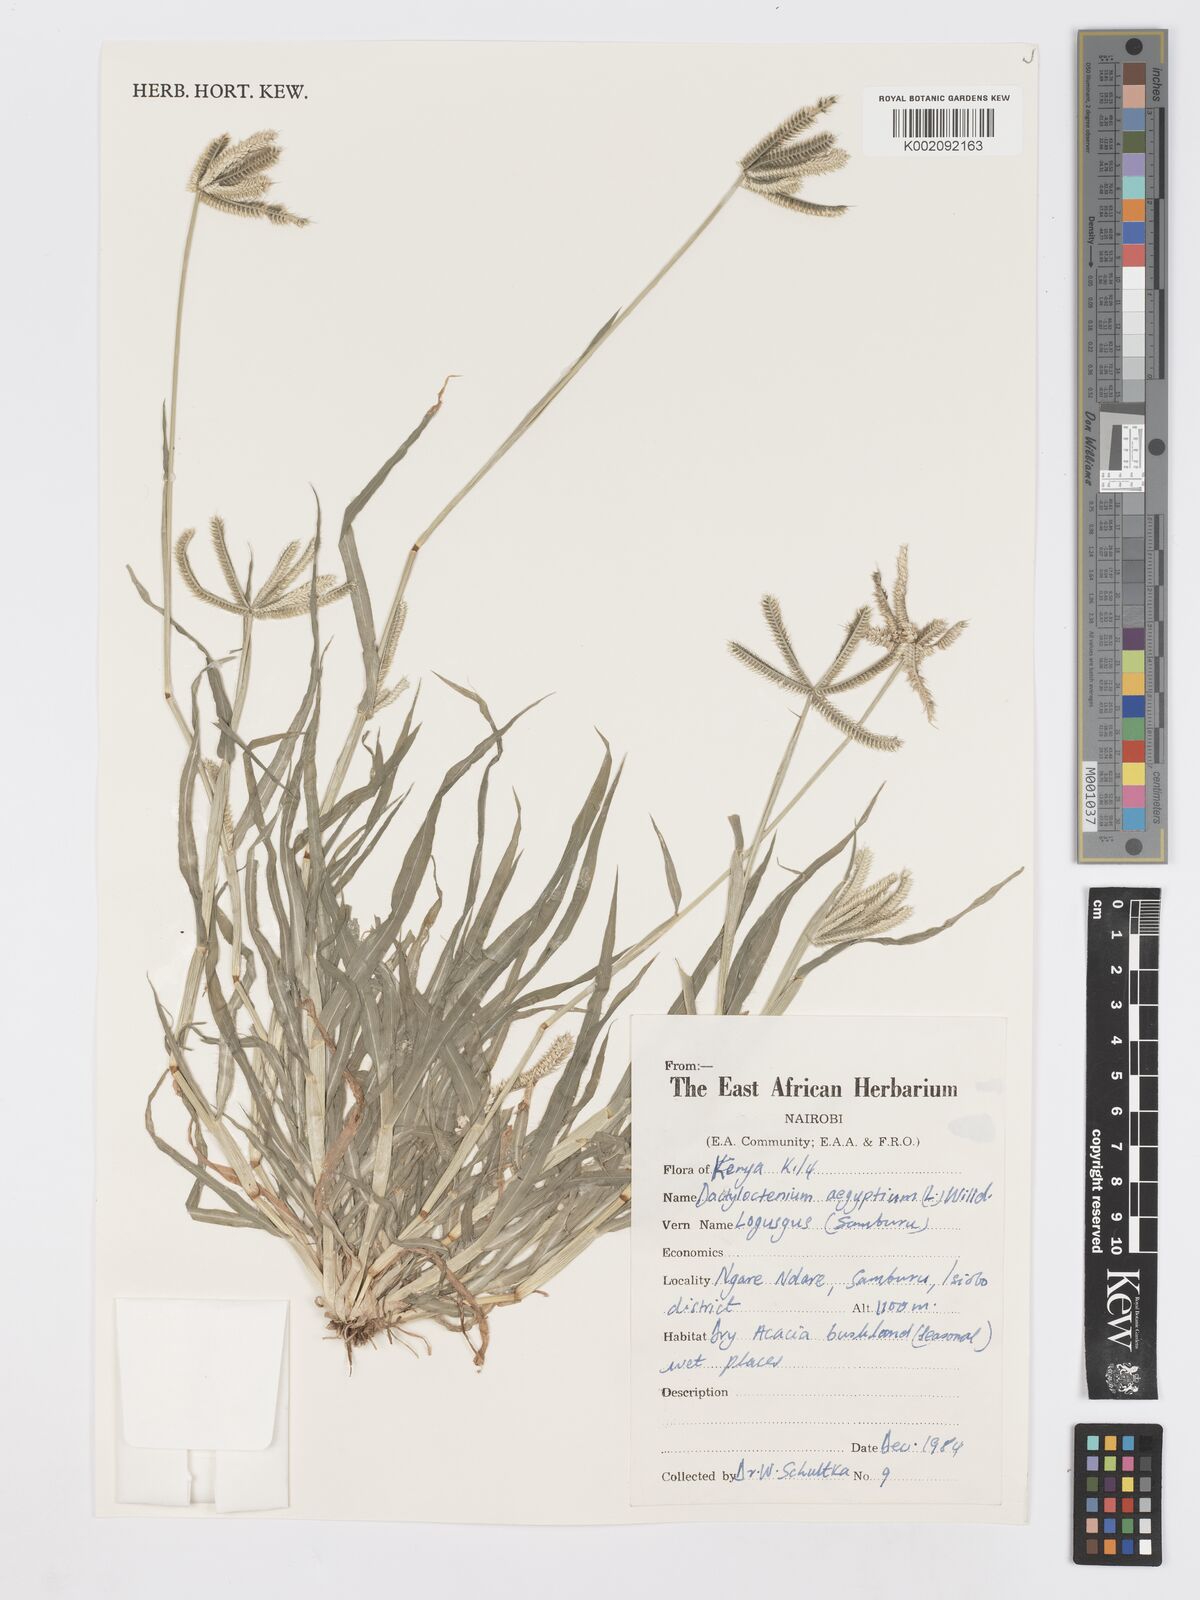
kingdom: Plantae
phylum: Tracheophyta
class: Liliopsida
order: Poales
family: Poaceae
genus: Dactyloctenium
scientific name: Dactyloctenium aegyptium
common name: Egyptian grass
